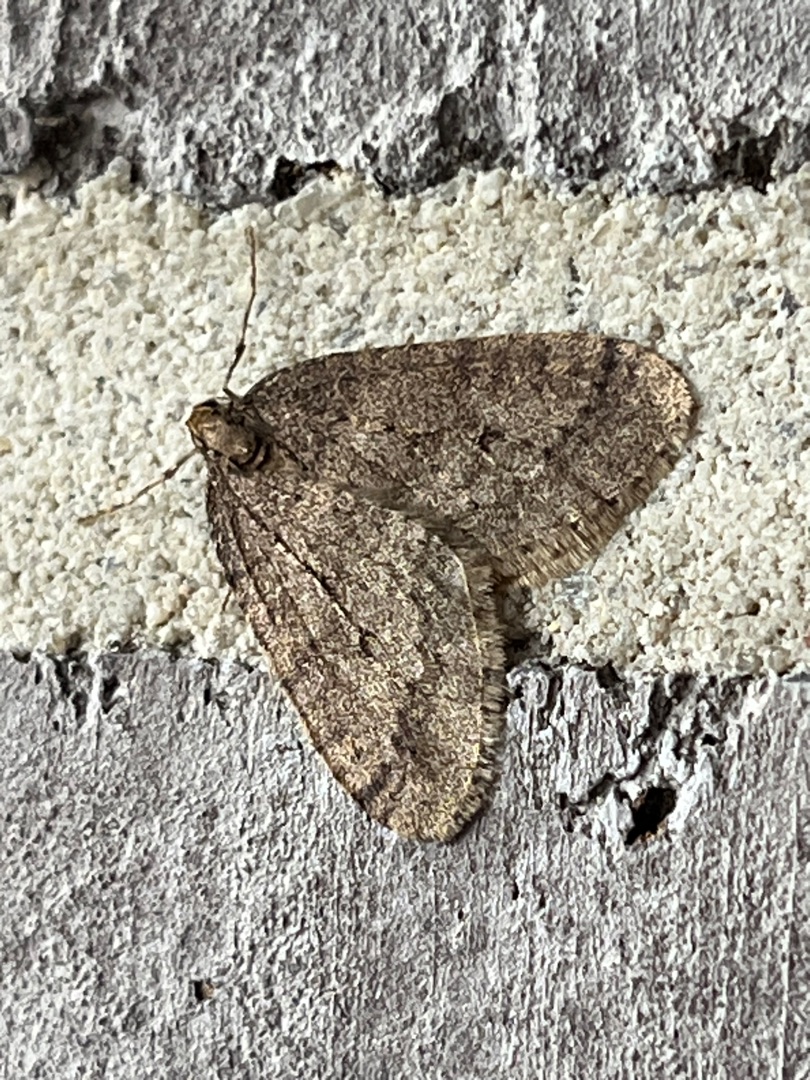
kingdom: Animalia
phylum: Arthropoda
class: Insecta
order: Lepidoptera
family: Geometridae
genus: Operophtera
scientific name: Operophtera brumata
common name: Lille frostmåler
